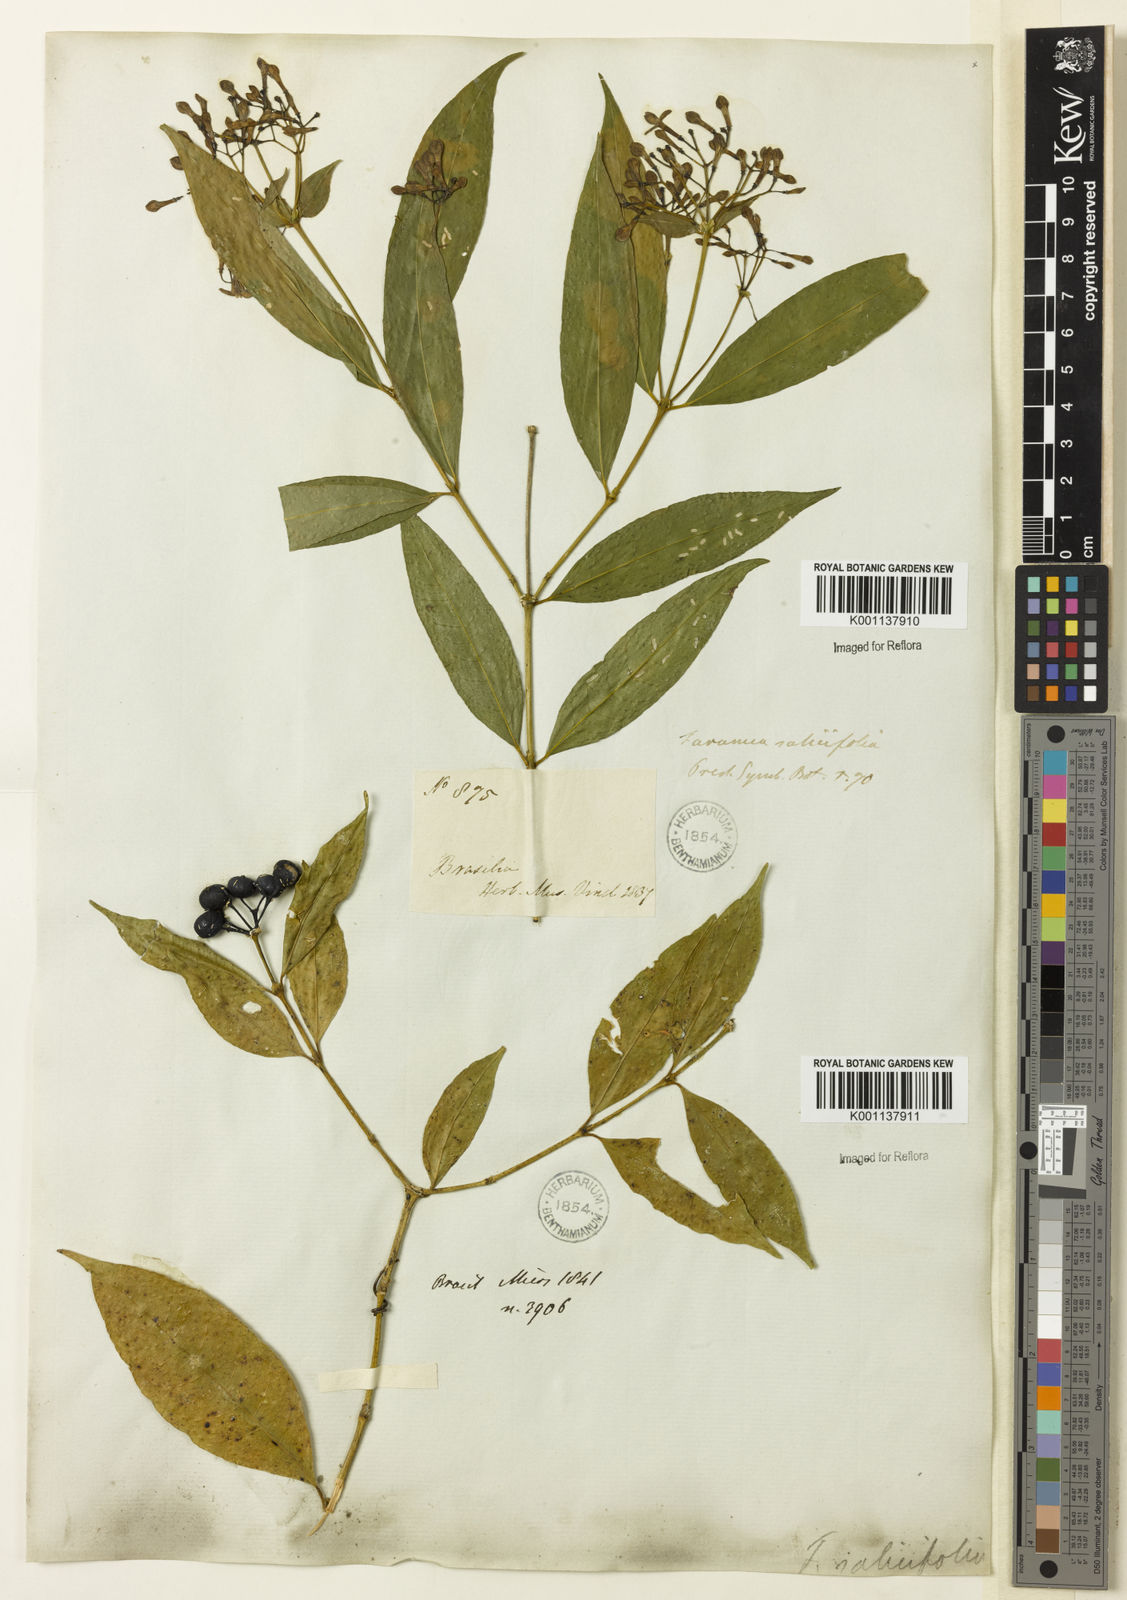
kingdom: Plantae
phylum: Tracheophyta
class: Magnoliopsida
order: Gentianales
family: Rubiaceae
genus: Faramea
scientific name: Faramea multiflora
